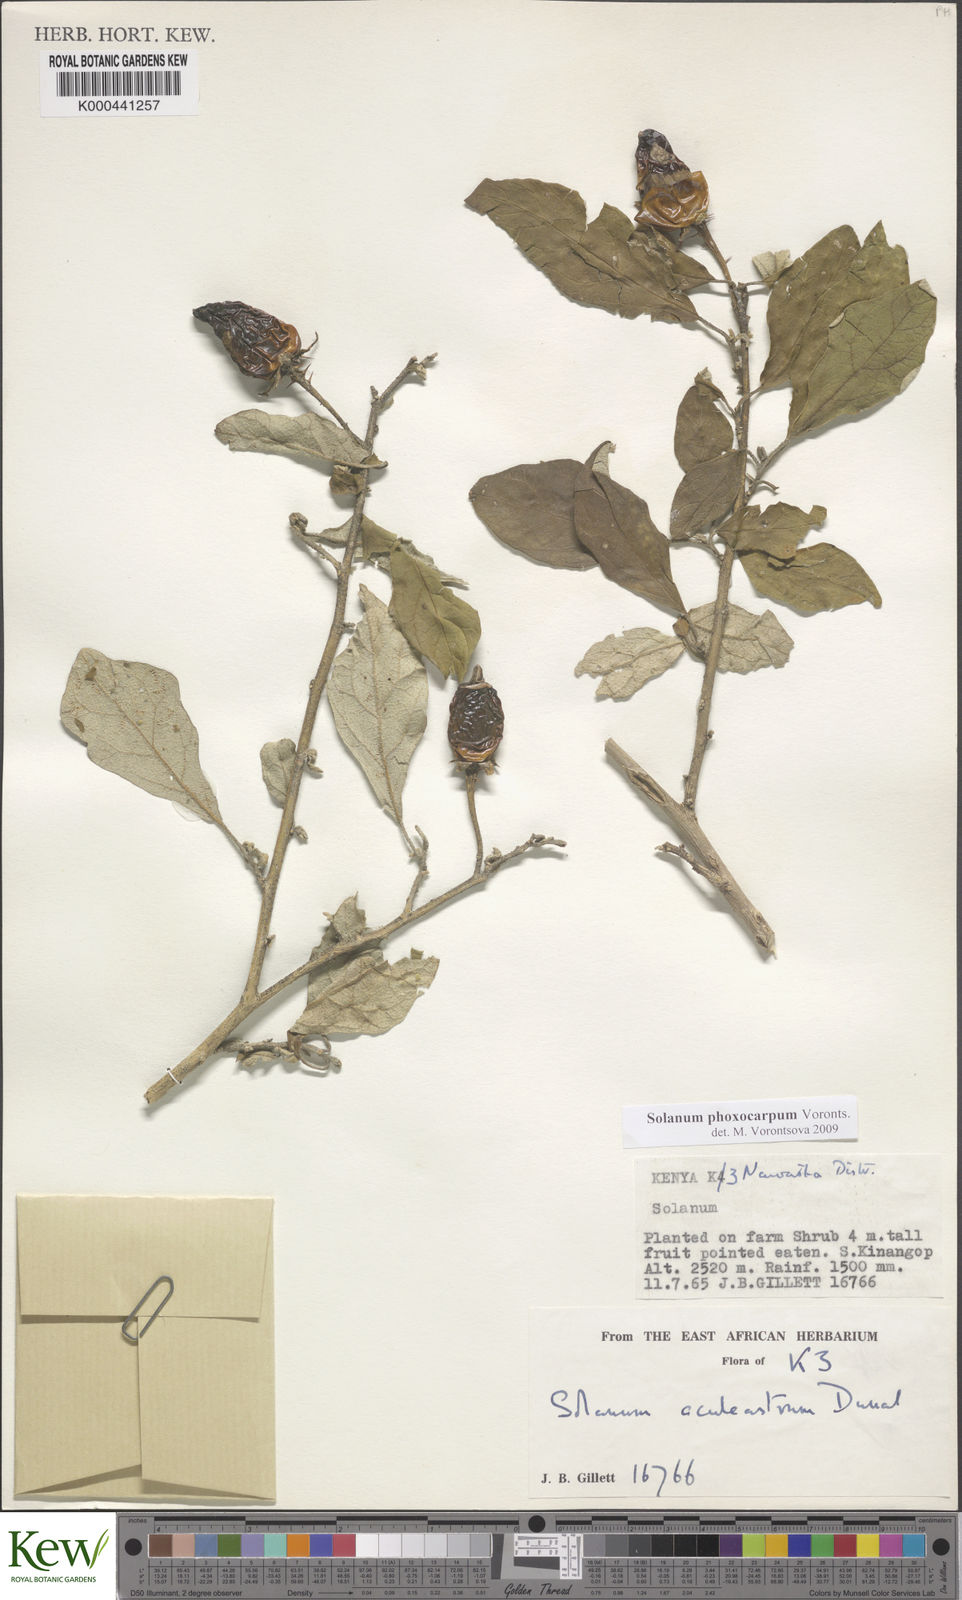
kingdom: Plantae
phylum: Tracheophyta
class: Magnoliopsida
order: Solanales
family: Solanaceae
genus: Solanum
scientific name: Solanum phoxocarpum
